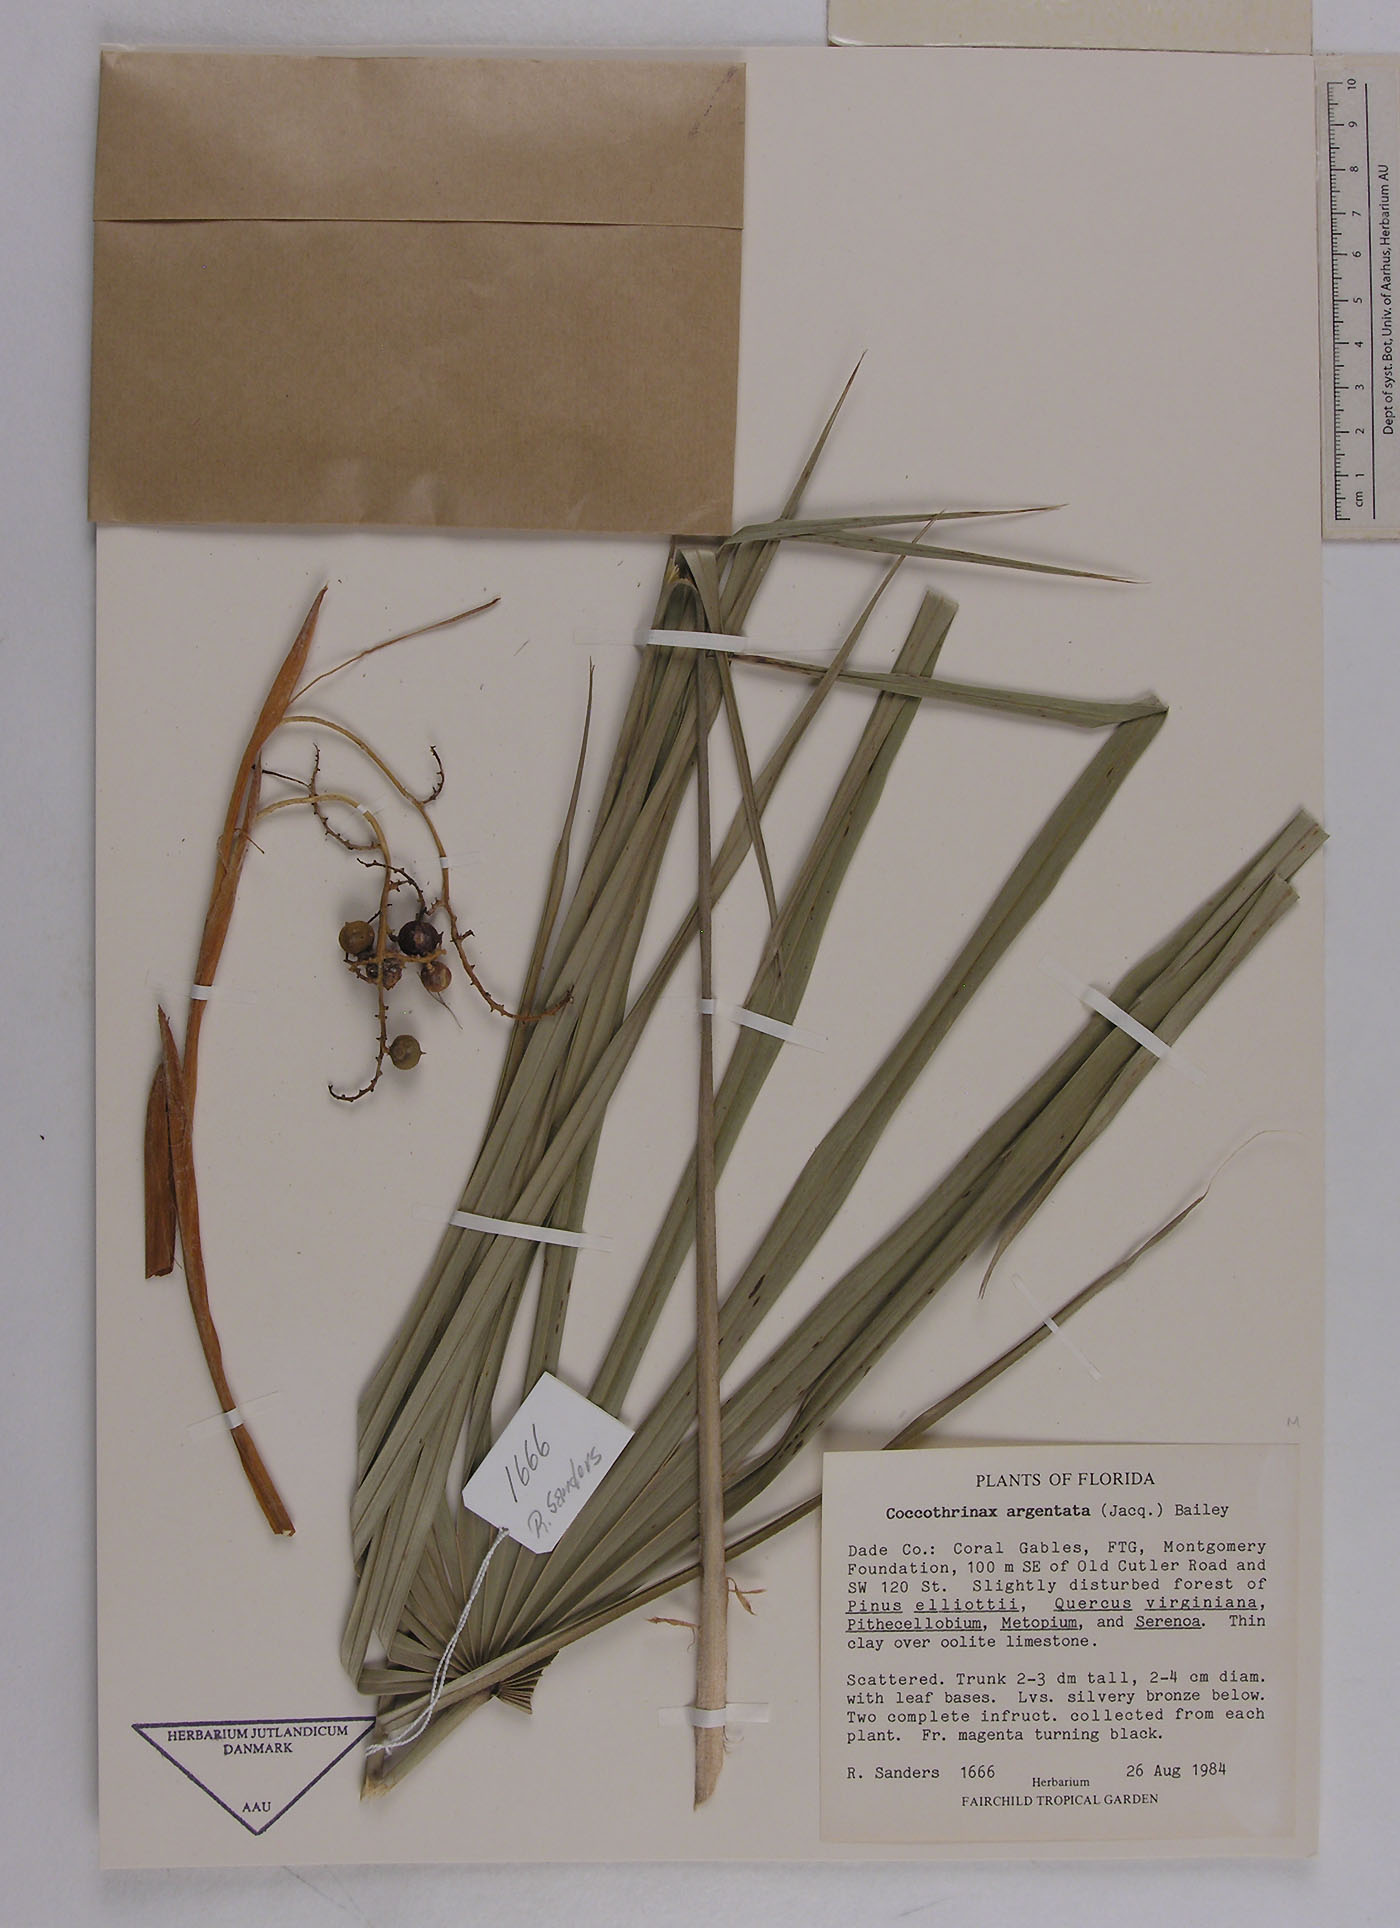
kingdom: Plantae
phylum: Tracheophyta
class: Liliopsida
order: Arecales
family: Arecaceae
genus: Coccothrinax
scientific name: Coccothrinax argentata
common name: Florida silver palm
